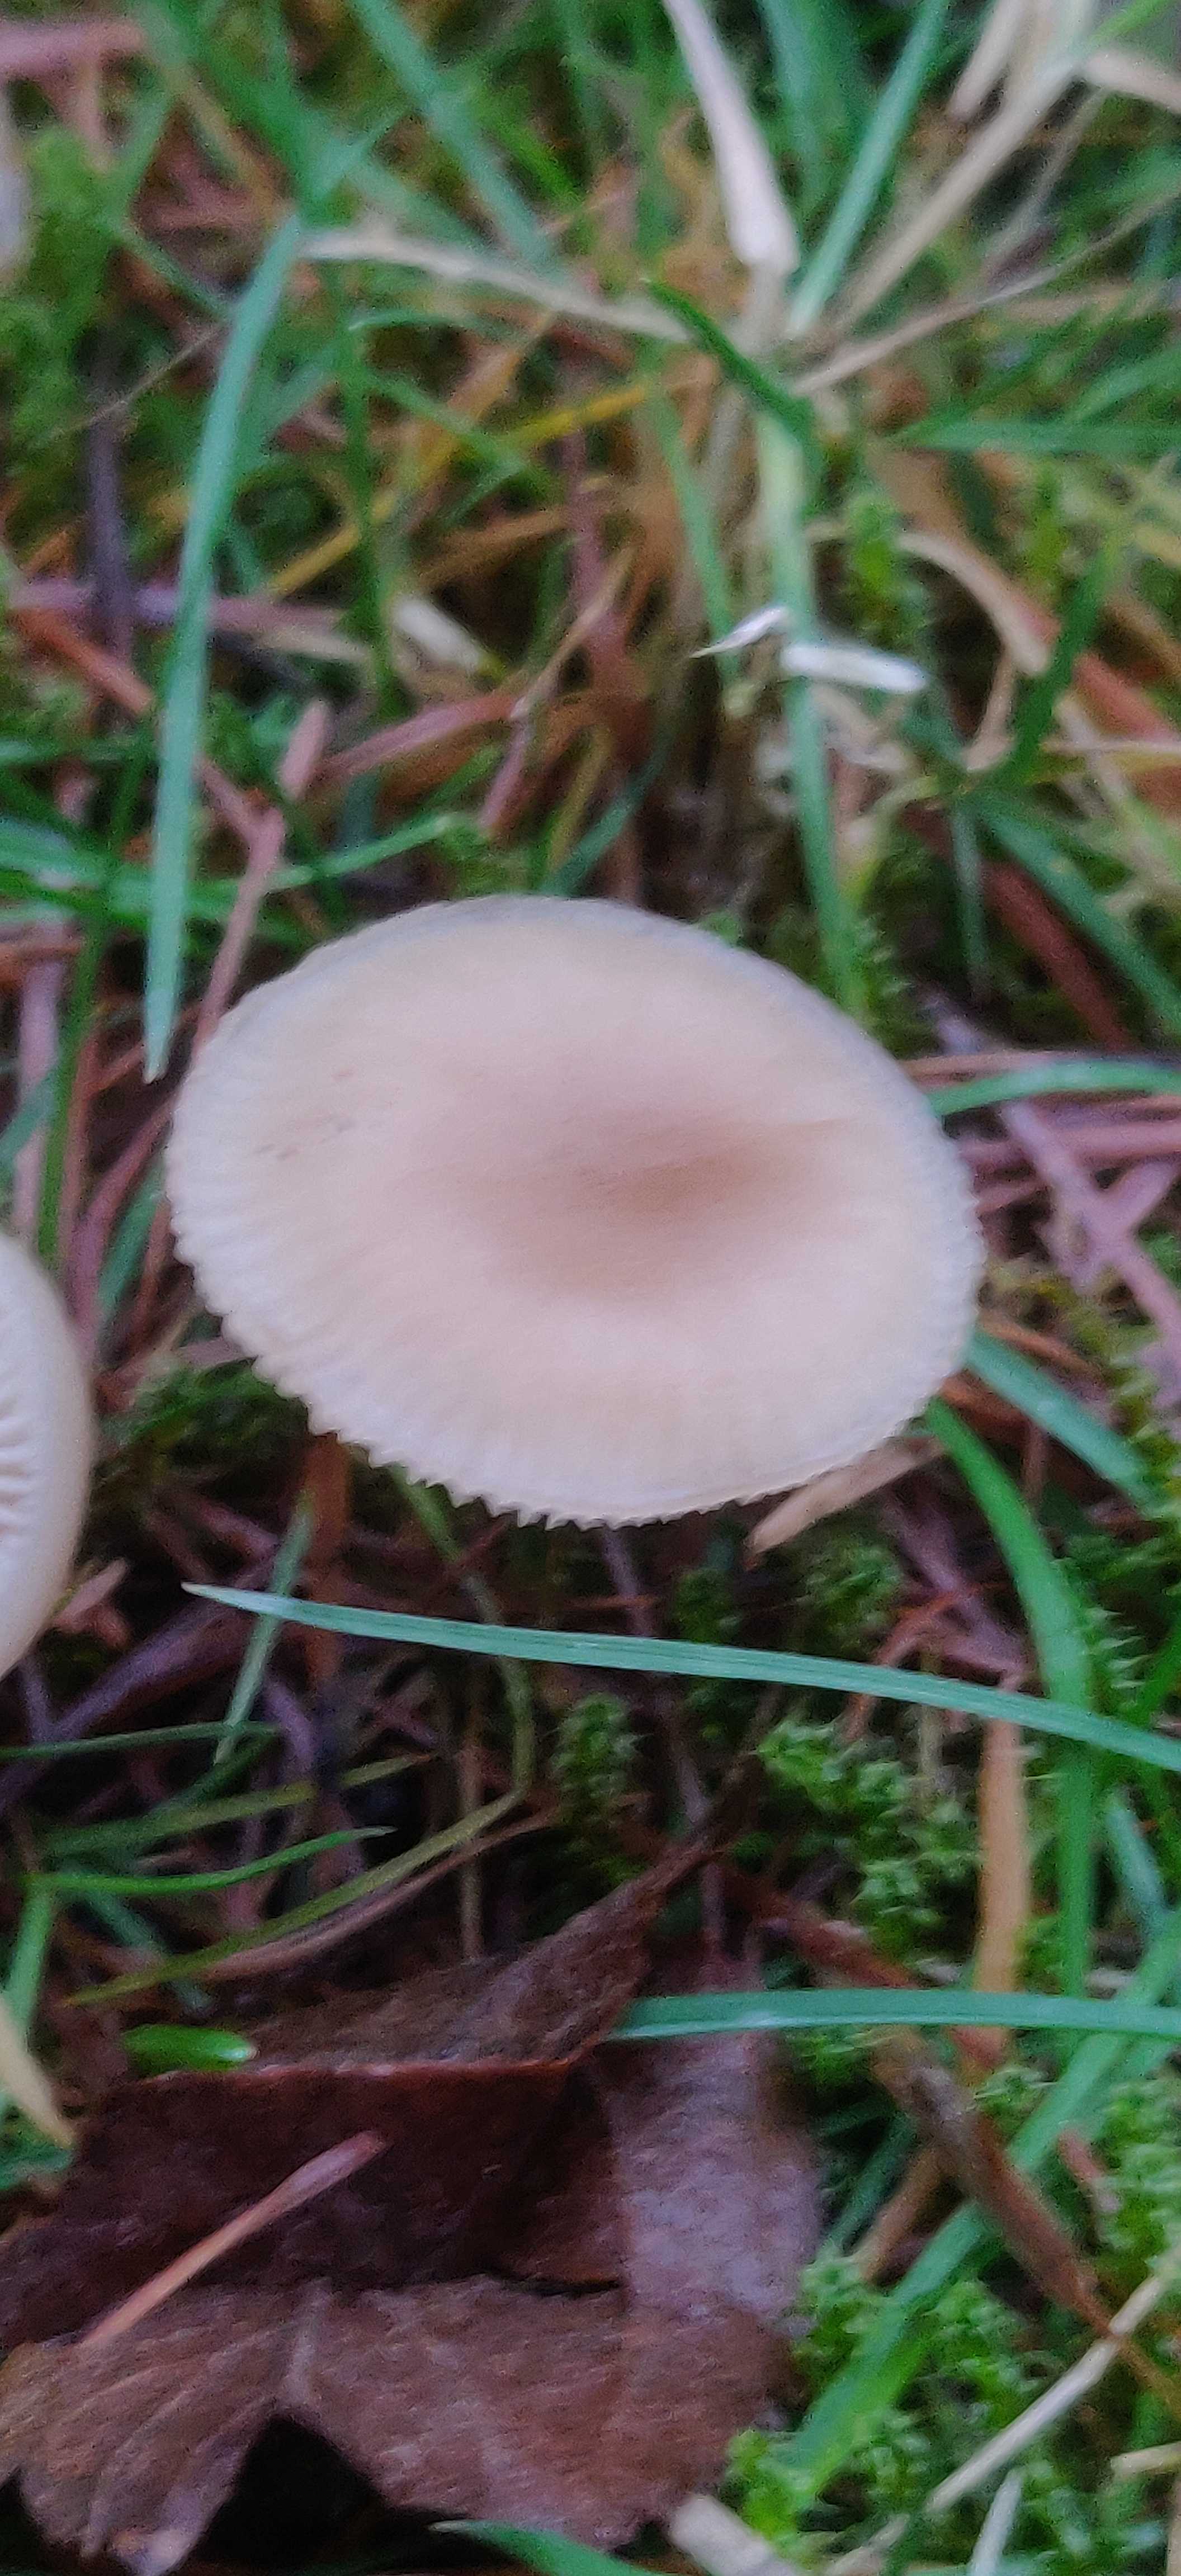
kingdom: Fungi
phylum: Basidiomycota
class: Agaricomycetes
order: Agaricales
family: Tricholomataceae
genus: Clitocybe
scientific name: Clitocybe fragrans
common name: vellugtende tragthat
